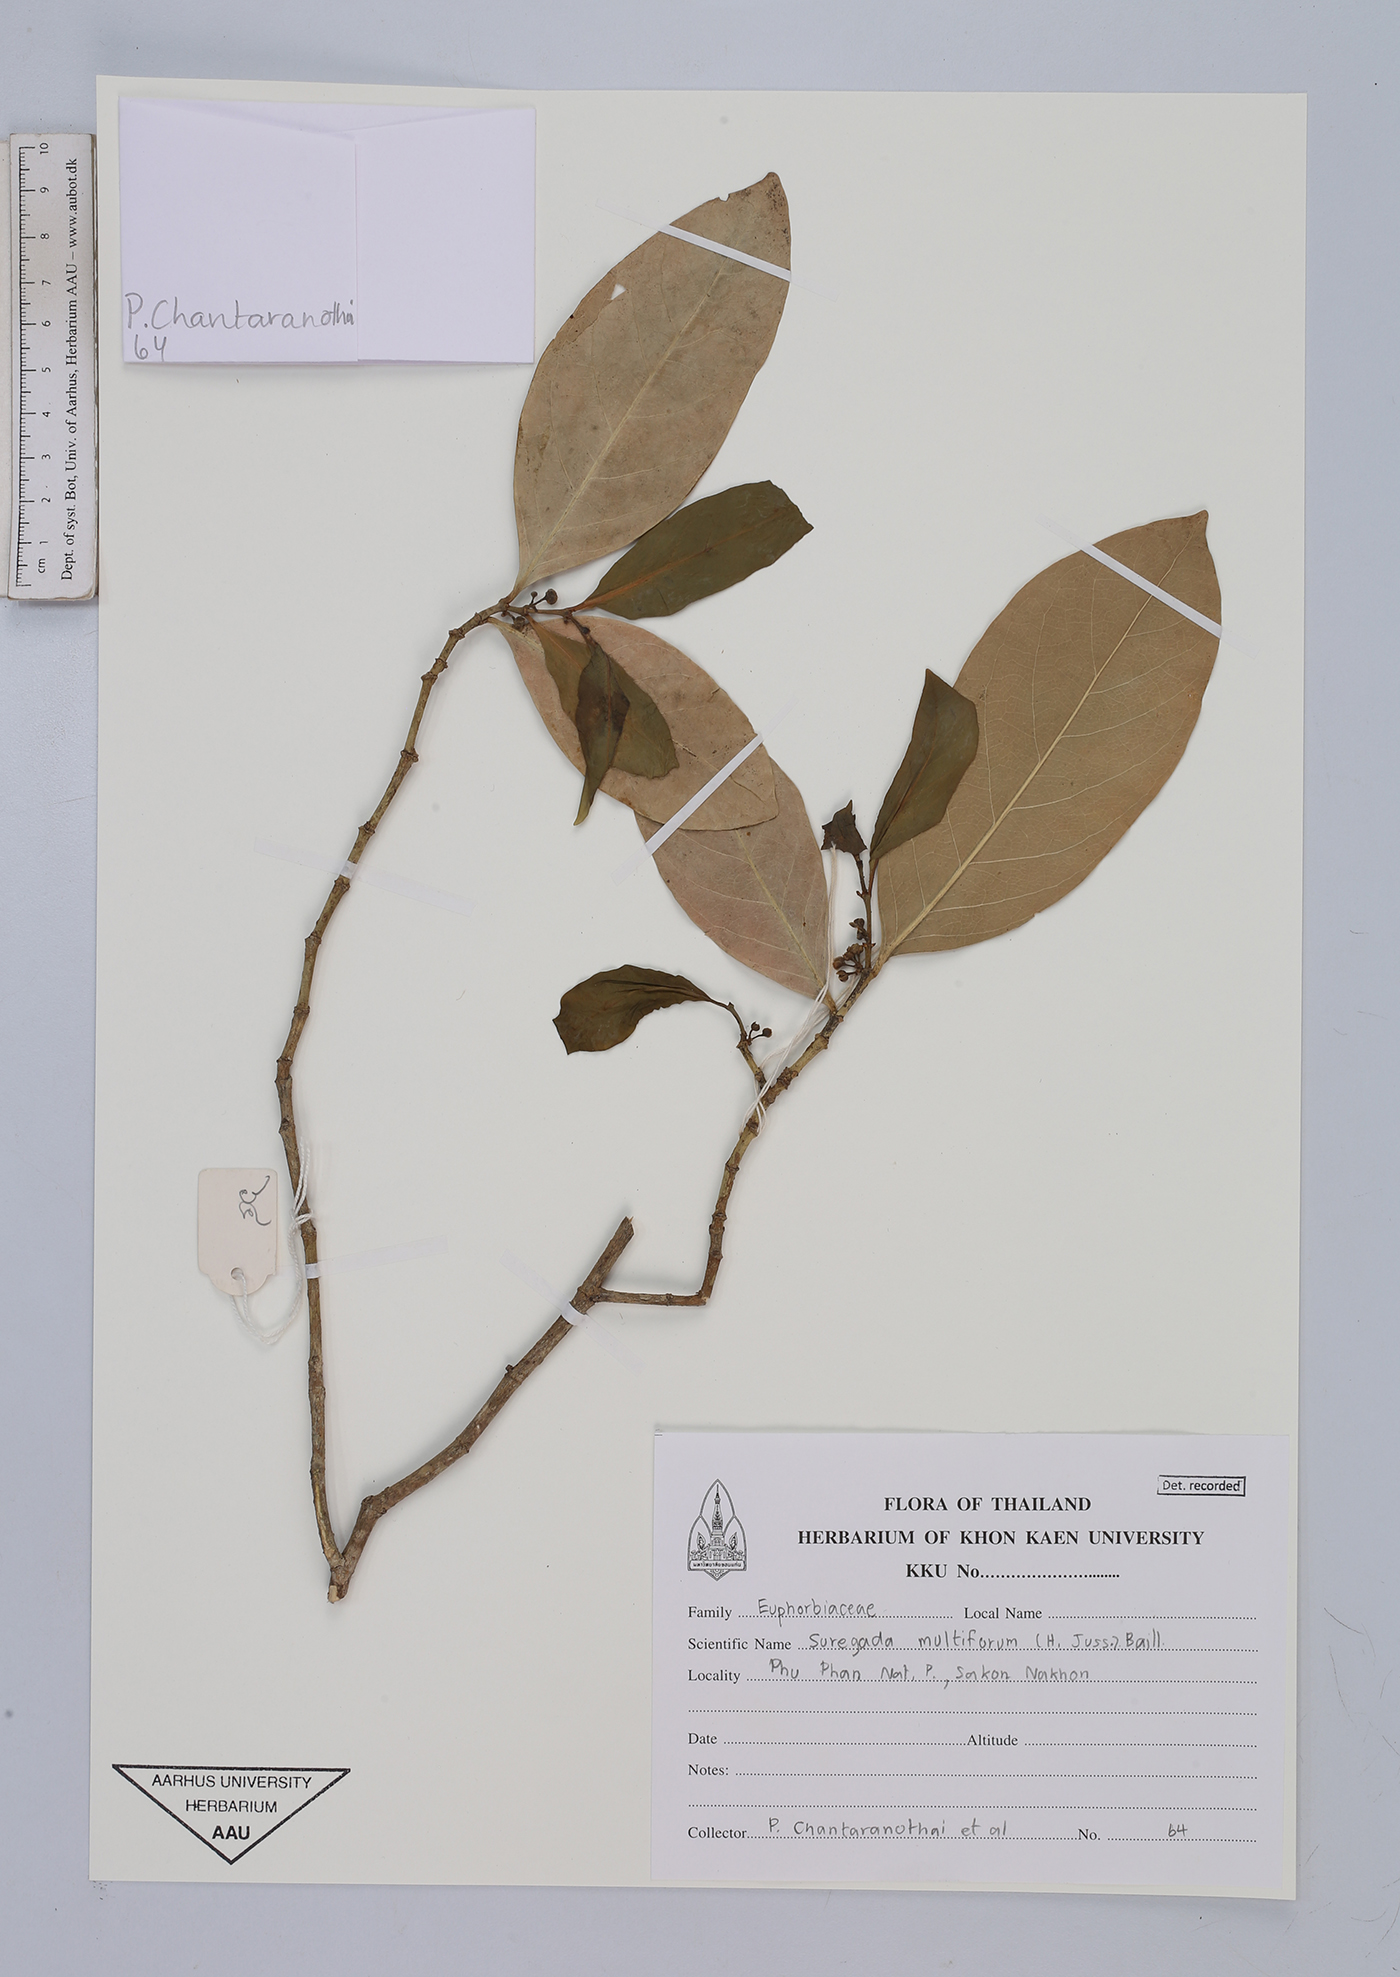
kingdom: Plantae
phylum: Tracheophyta
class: Magnoliopsida
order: Malpighiales
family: Euphorbiaceae
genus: Suregada
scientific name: Suregada multiflora
